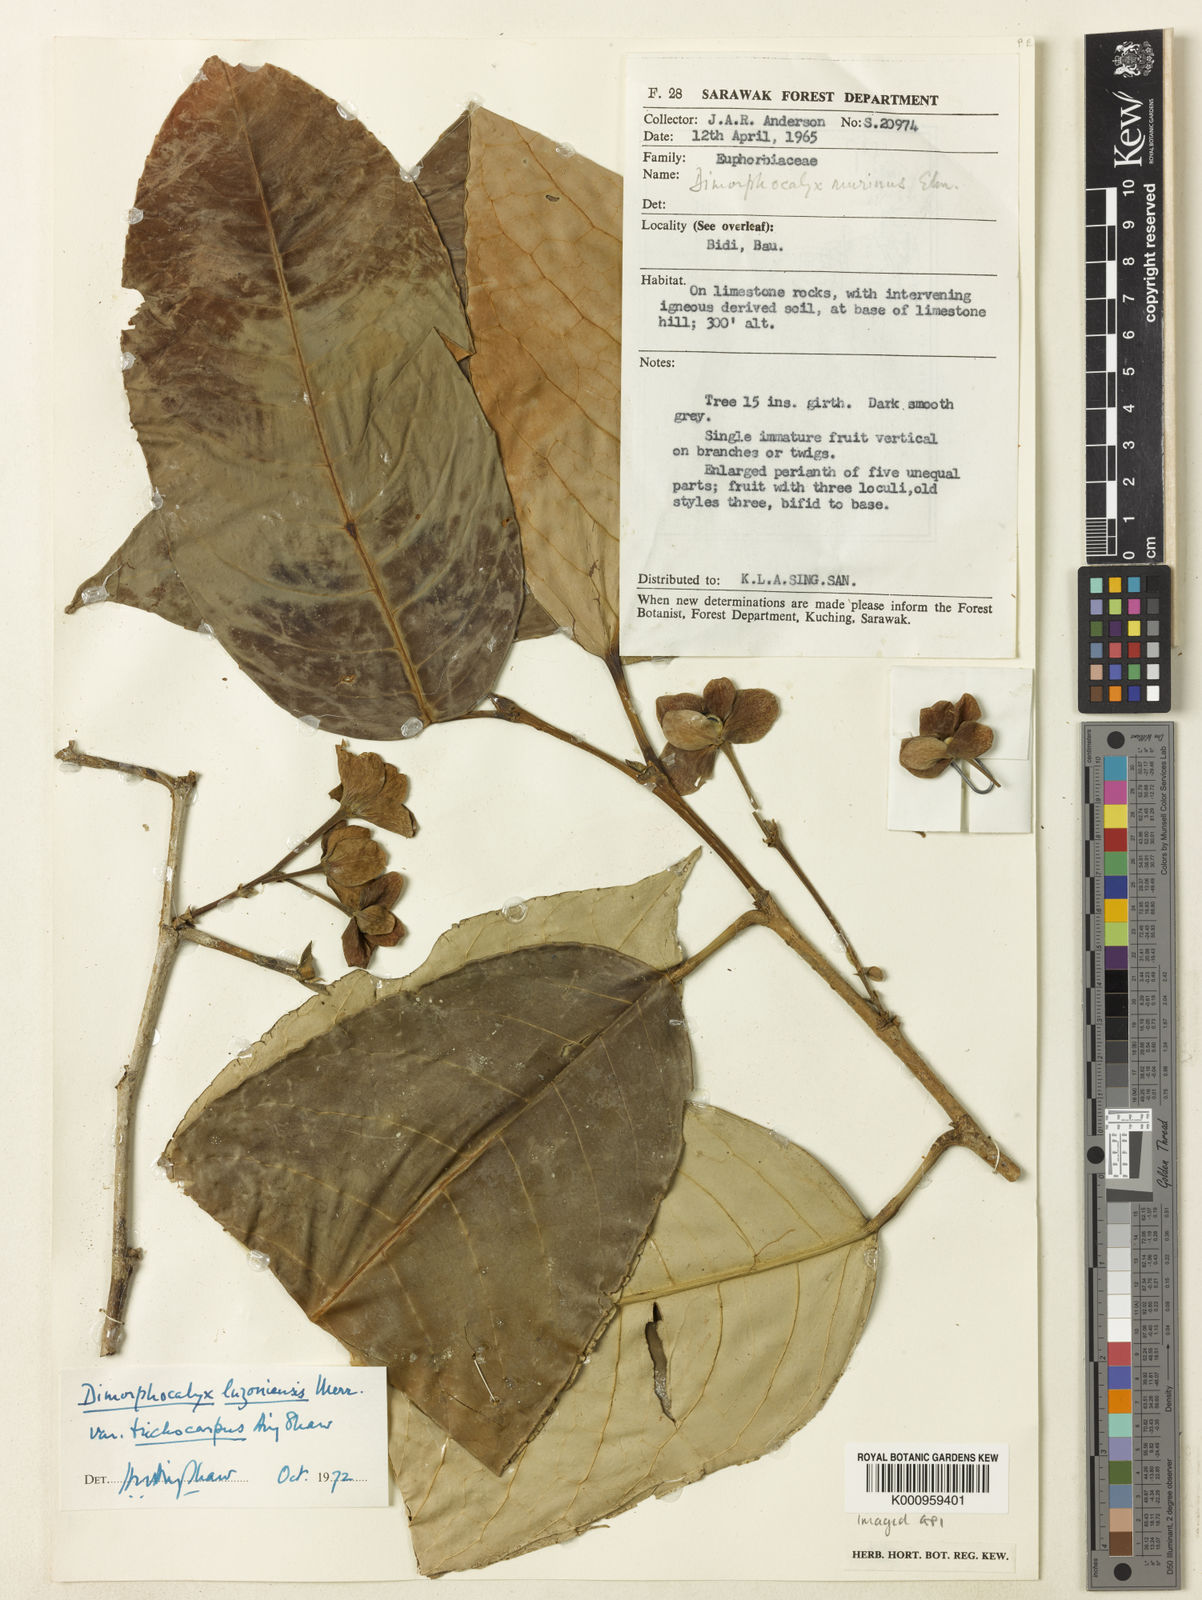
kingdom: Plantae
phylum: Tracheophyta
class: Magnoliopsida
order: Malpighiales
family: Euphorbiaceae
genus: Tritaxis
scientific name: Tritaxis trichocarpa
